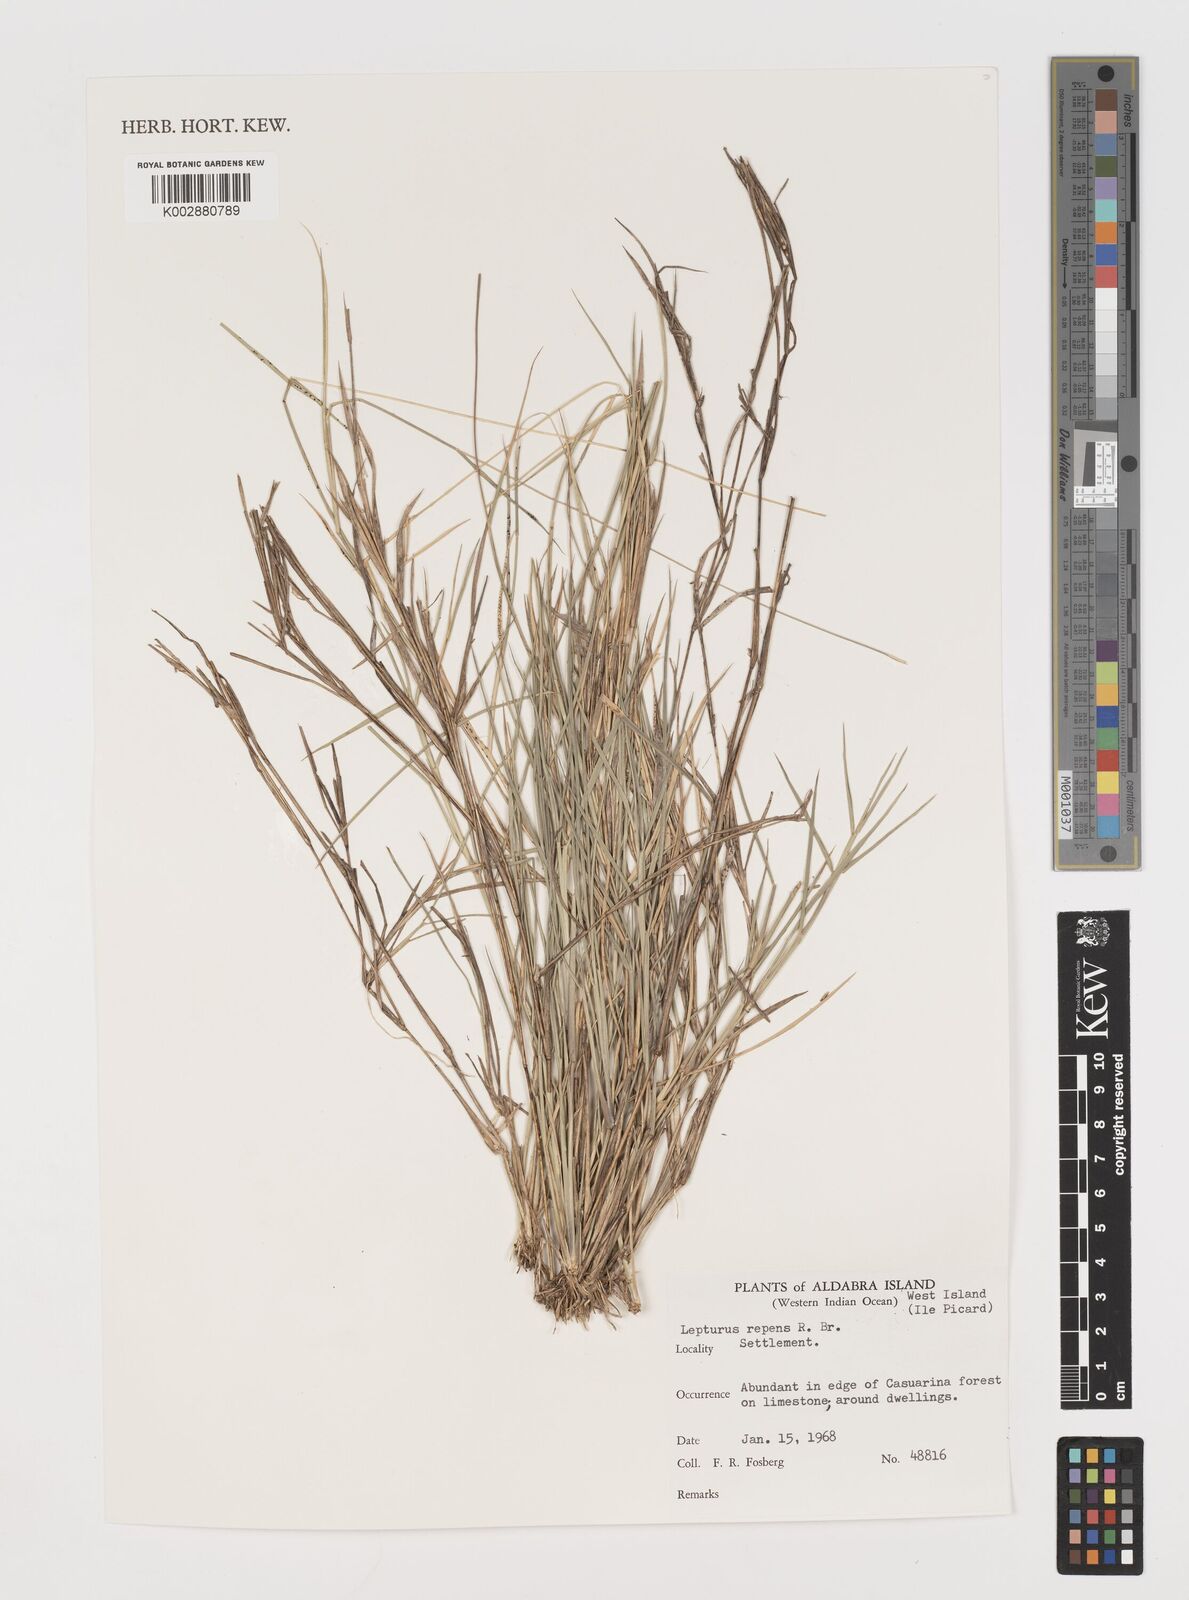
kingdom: Plantae
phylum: Tracheophyta
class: Liliopsida
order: Poales
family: Poaceae
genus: Lepturus
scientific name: Lepturus repens
